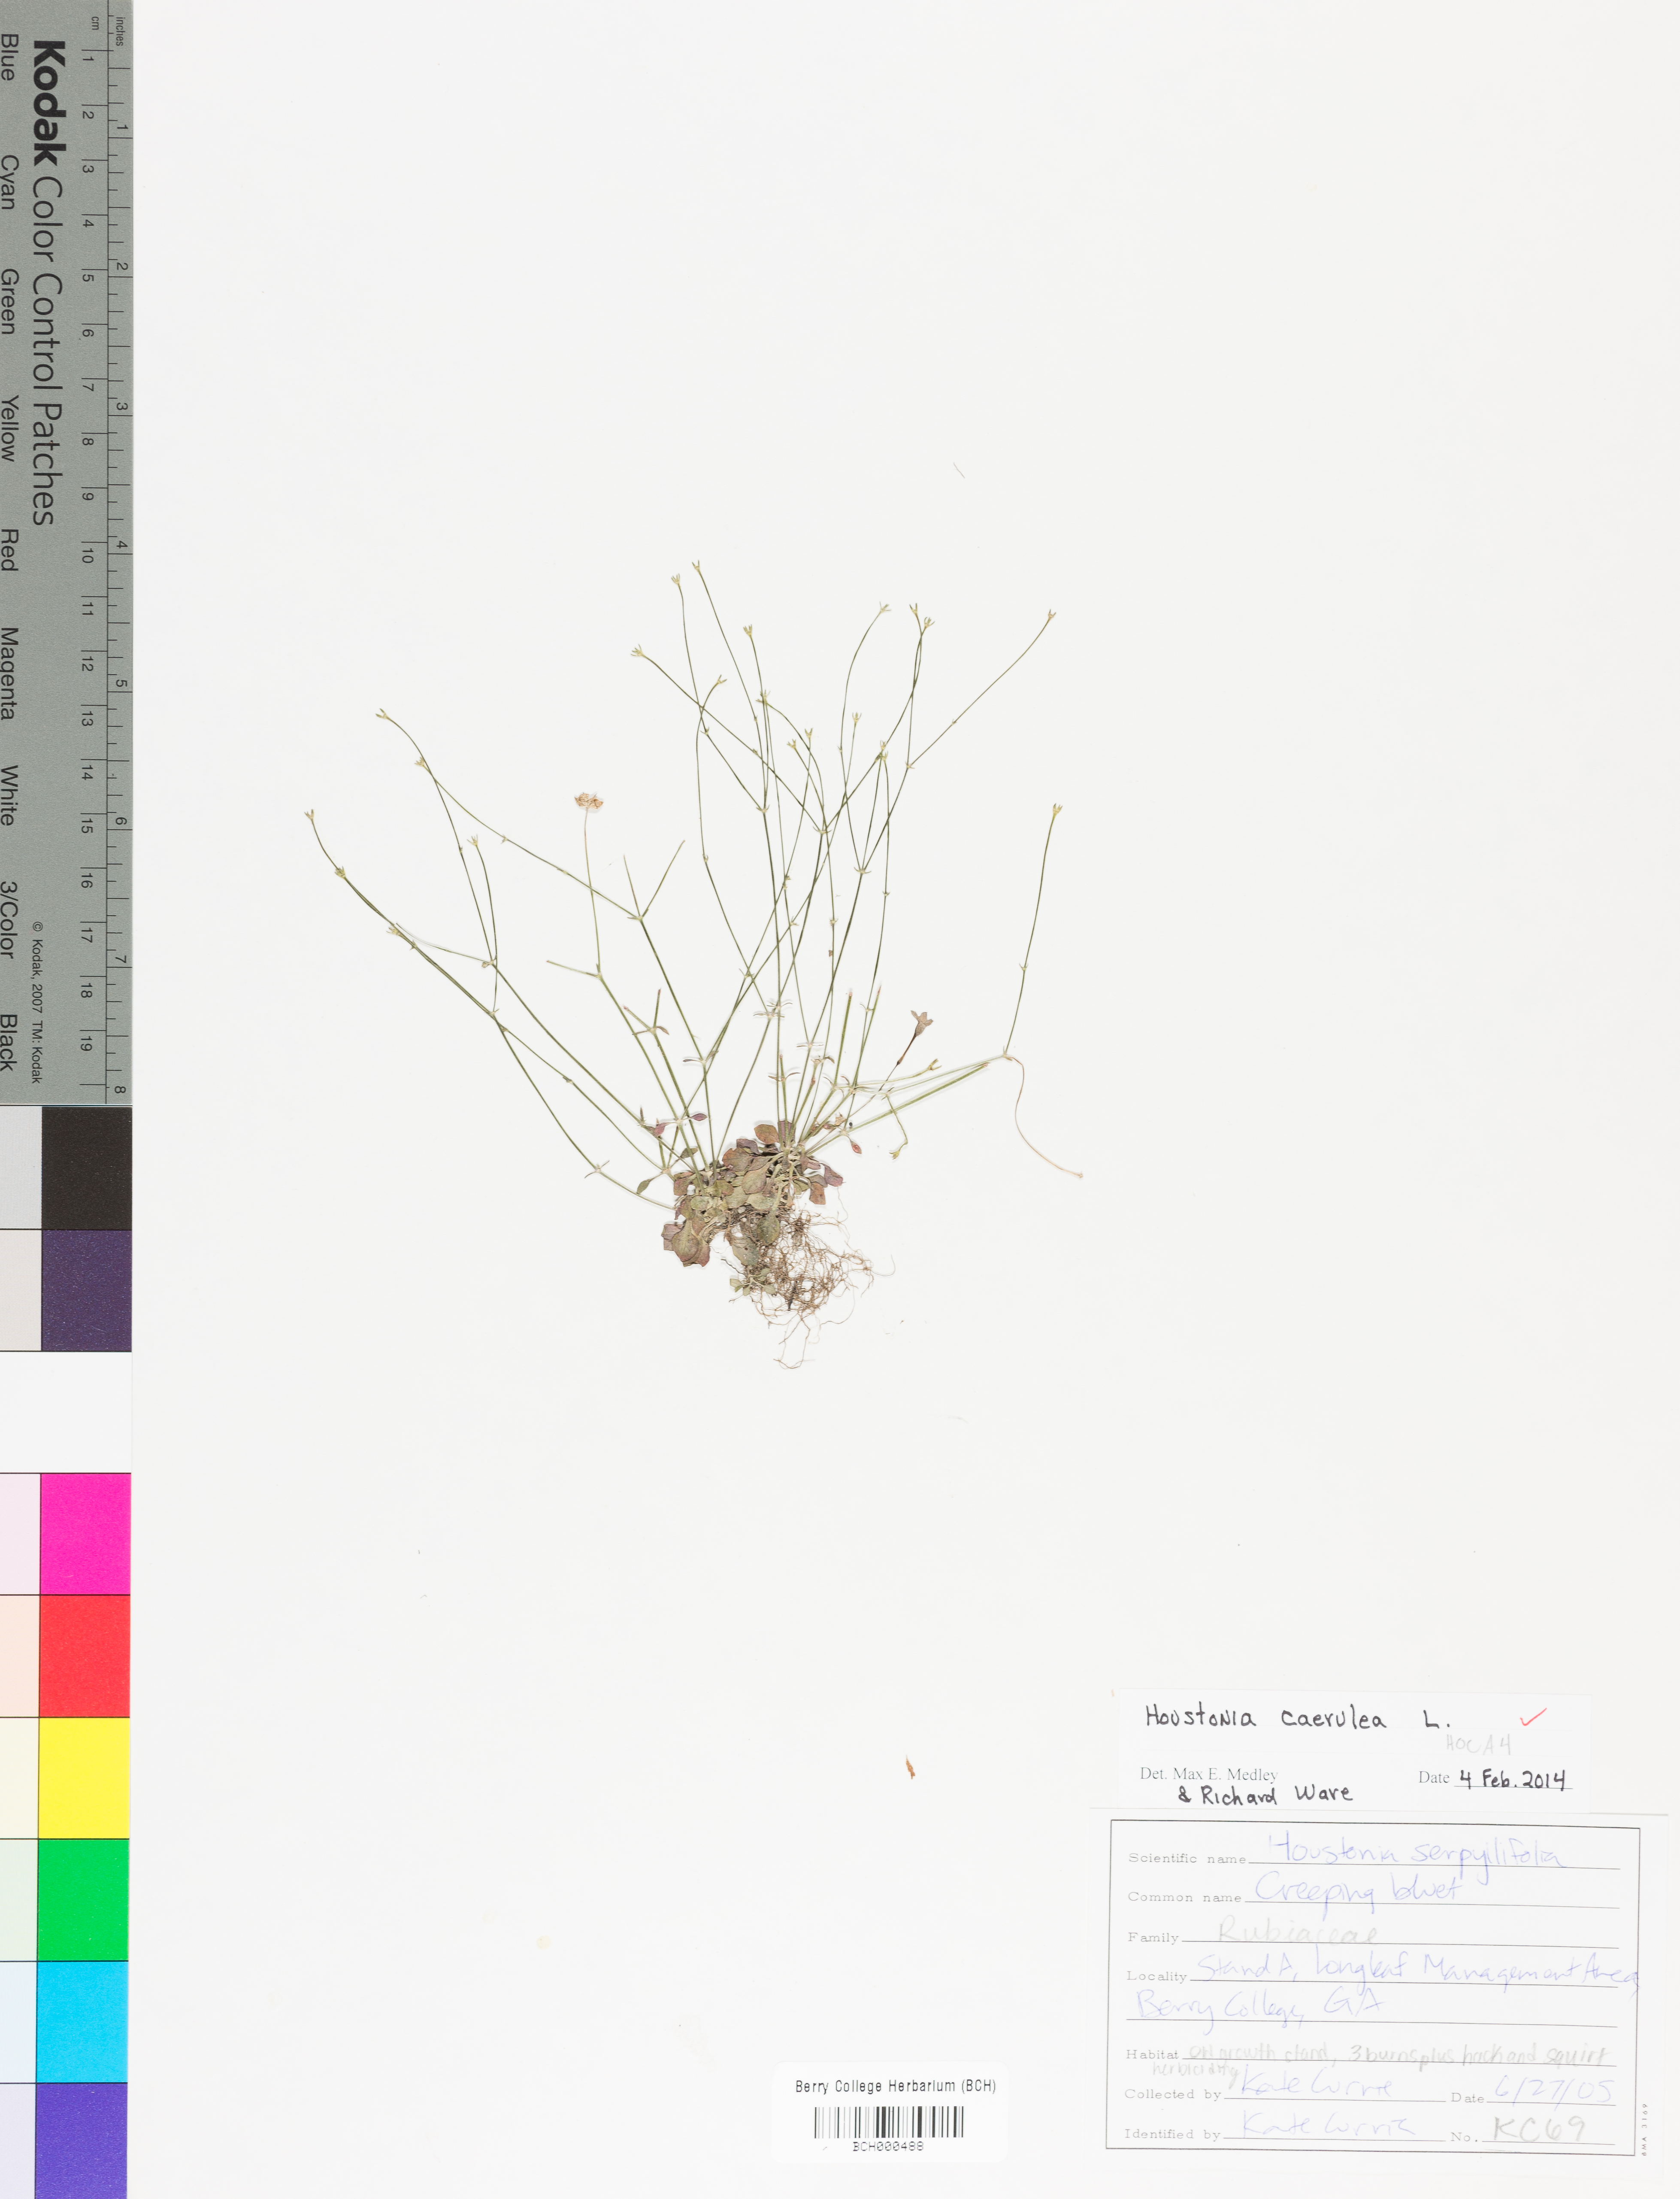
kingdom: Plantae
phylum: Tracheophyta
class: Magnoliopsida
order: Gentianales
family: Rubiaceae
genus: Houstonia
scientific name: Houstonia caerulea
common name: Bluets
